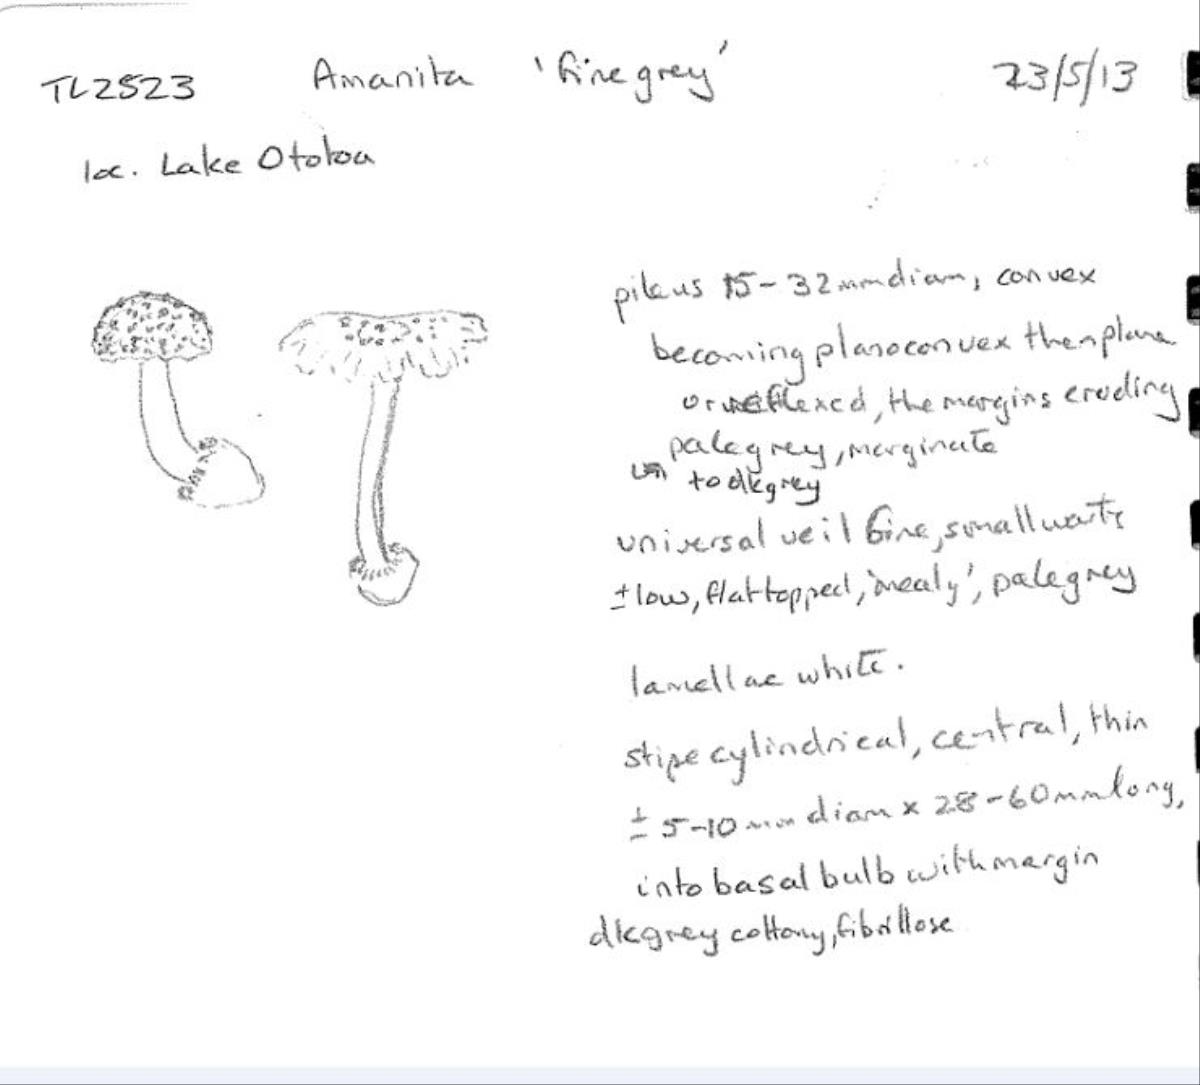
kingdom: Fungi
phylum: Basidiomycota
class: Agaricomycetes
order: Agaricales
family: Amanitaceae
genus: Amanita
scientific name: Amanita nehuta
